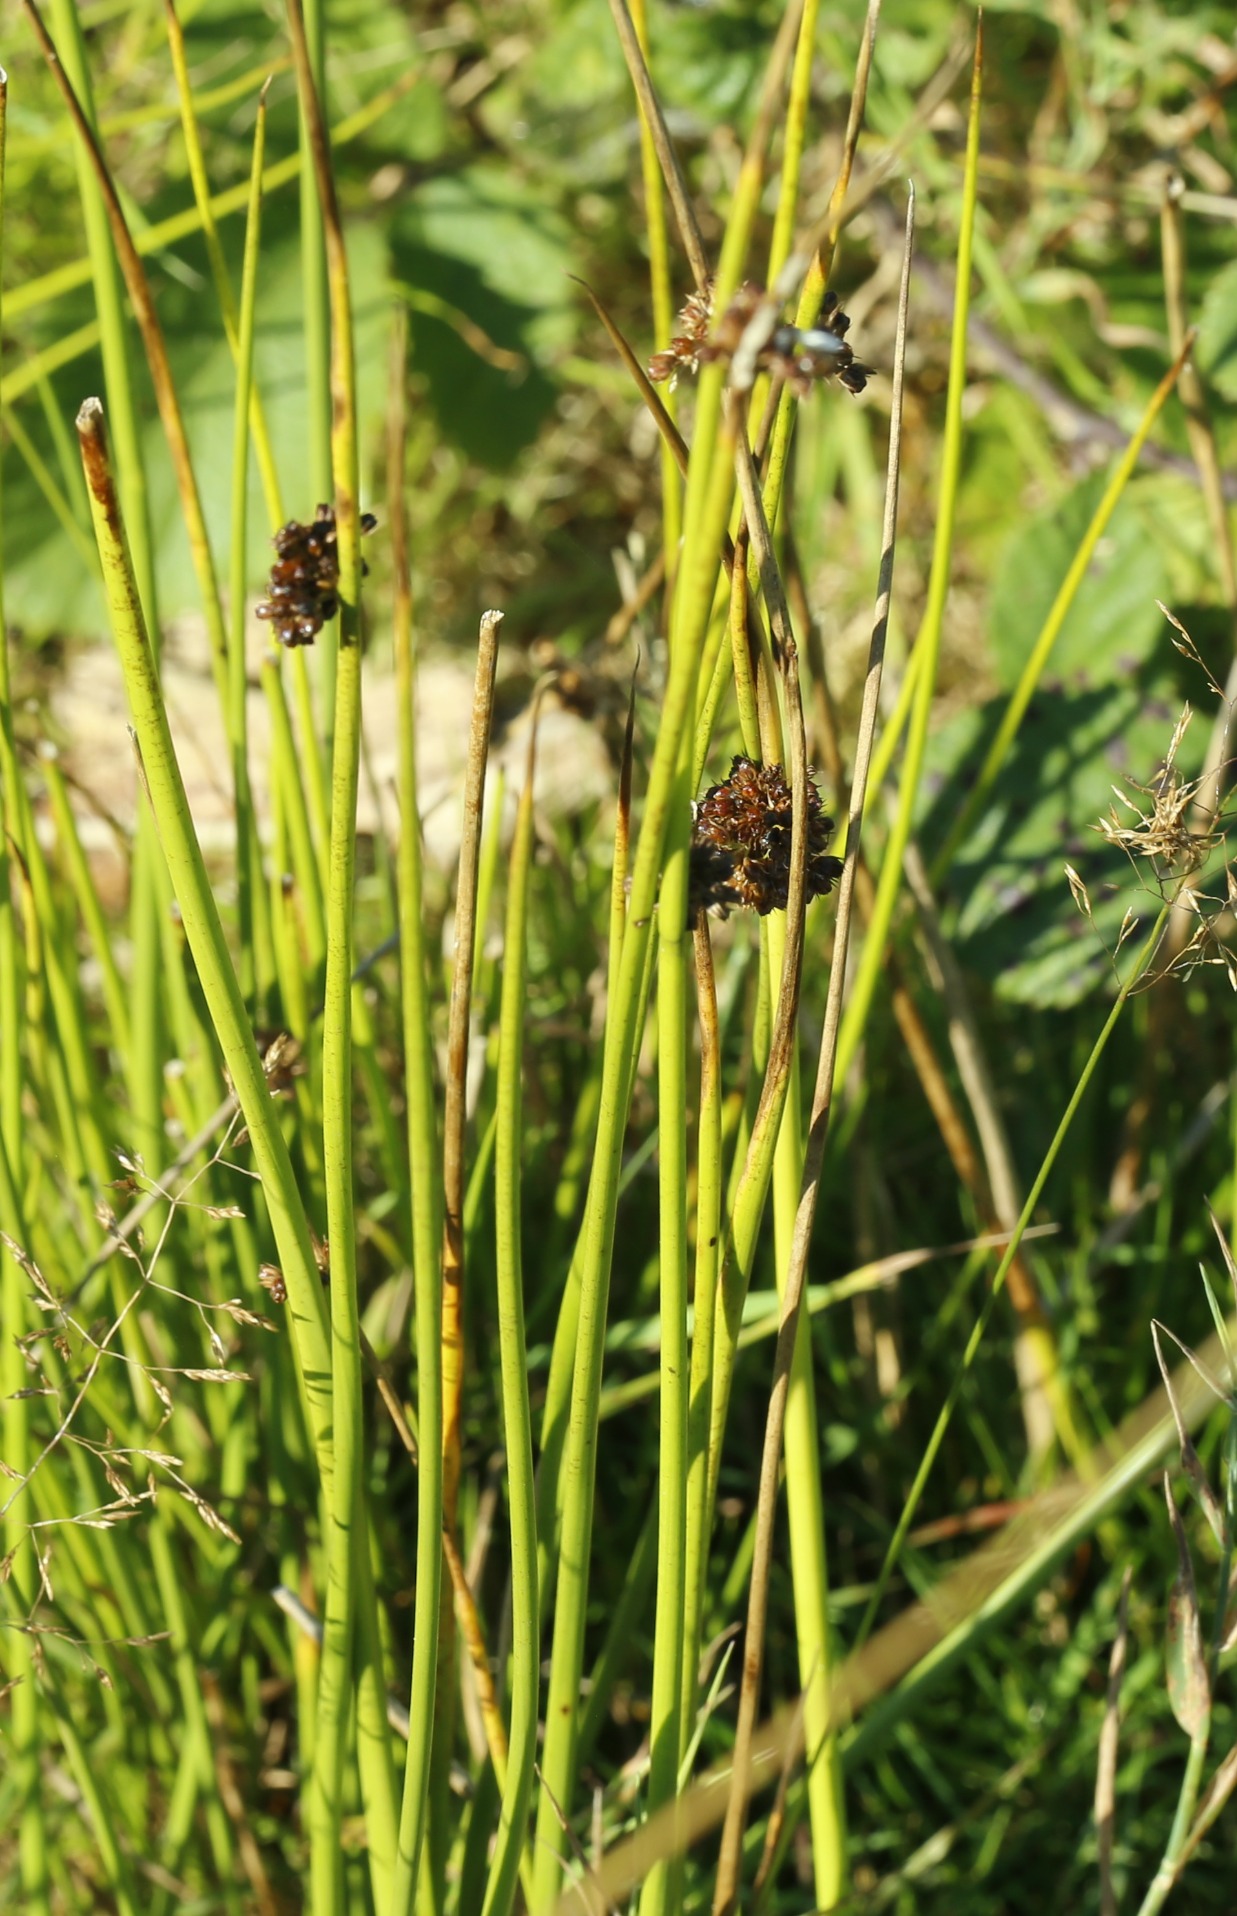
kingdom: Plantae
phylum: Tracheophyta
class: Liliopsida
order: Poales
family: Juncaceae
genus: Juncus
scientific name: Juncus effusus
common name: Lyse-siv
